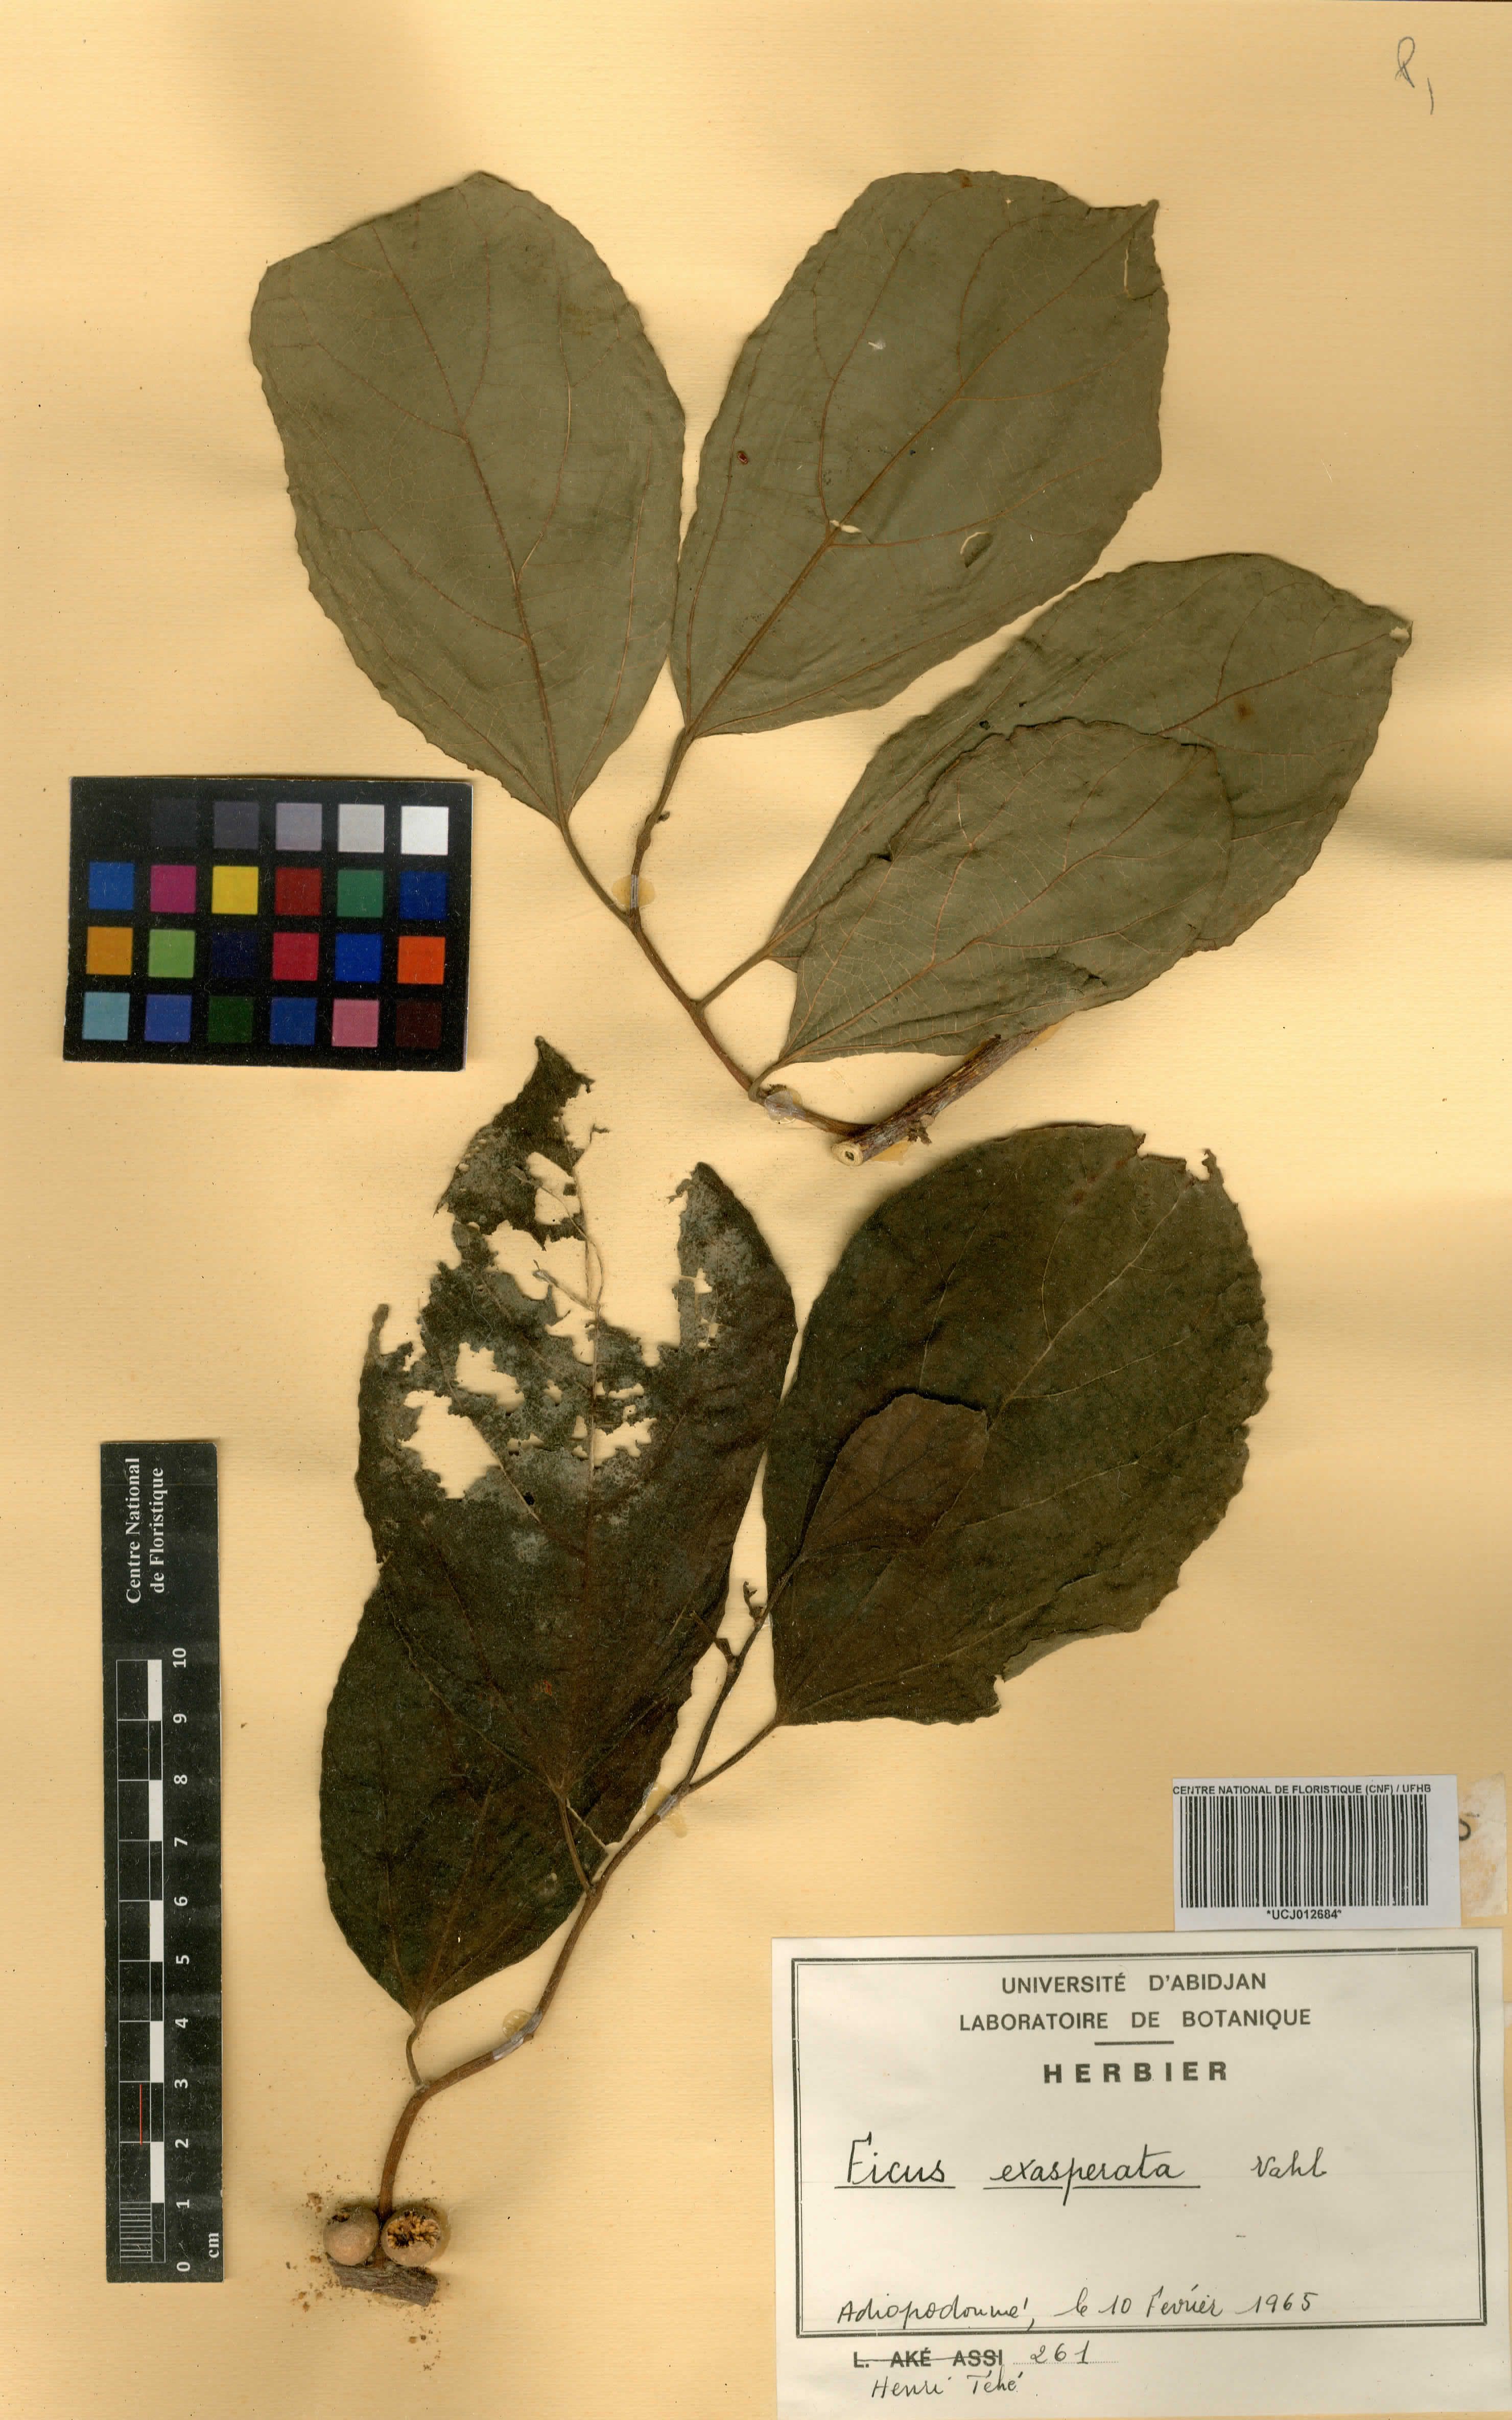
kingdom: Plantae
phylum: Tracheophyta
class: Magnoliopsida
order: Rosales
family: Moraceae
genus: Ficus
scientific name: Ficus ardisioides
